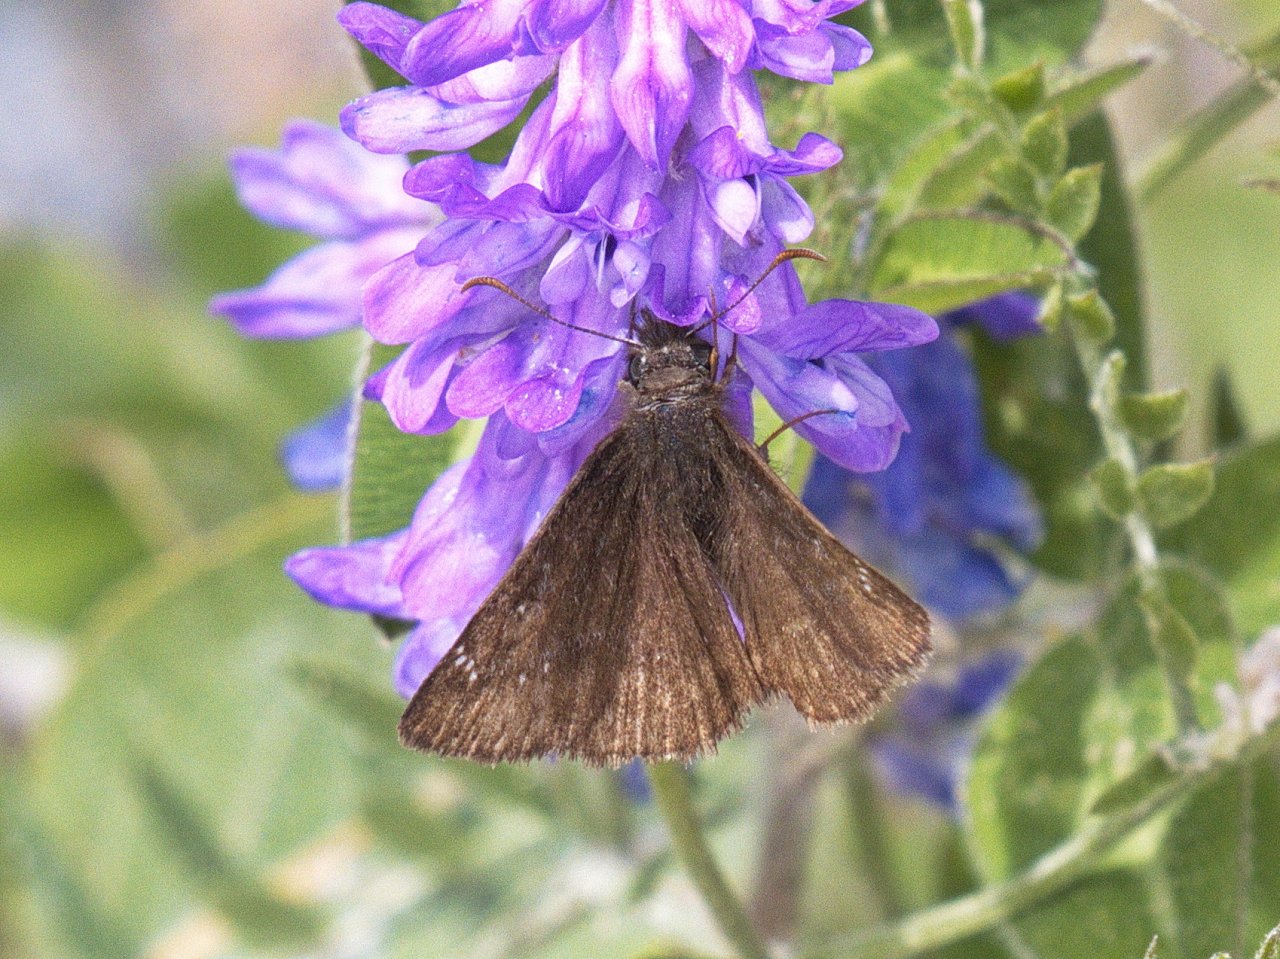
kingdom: Animalia
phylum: Arthropoda
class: Insecta
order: Lepidoptera
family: Hesperiidae
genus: Erynnis
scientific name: Erynnis
